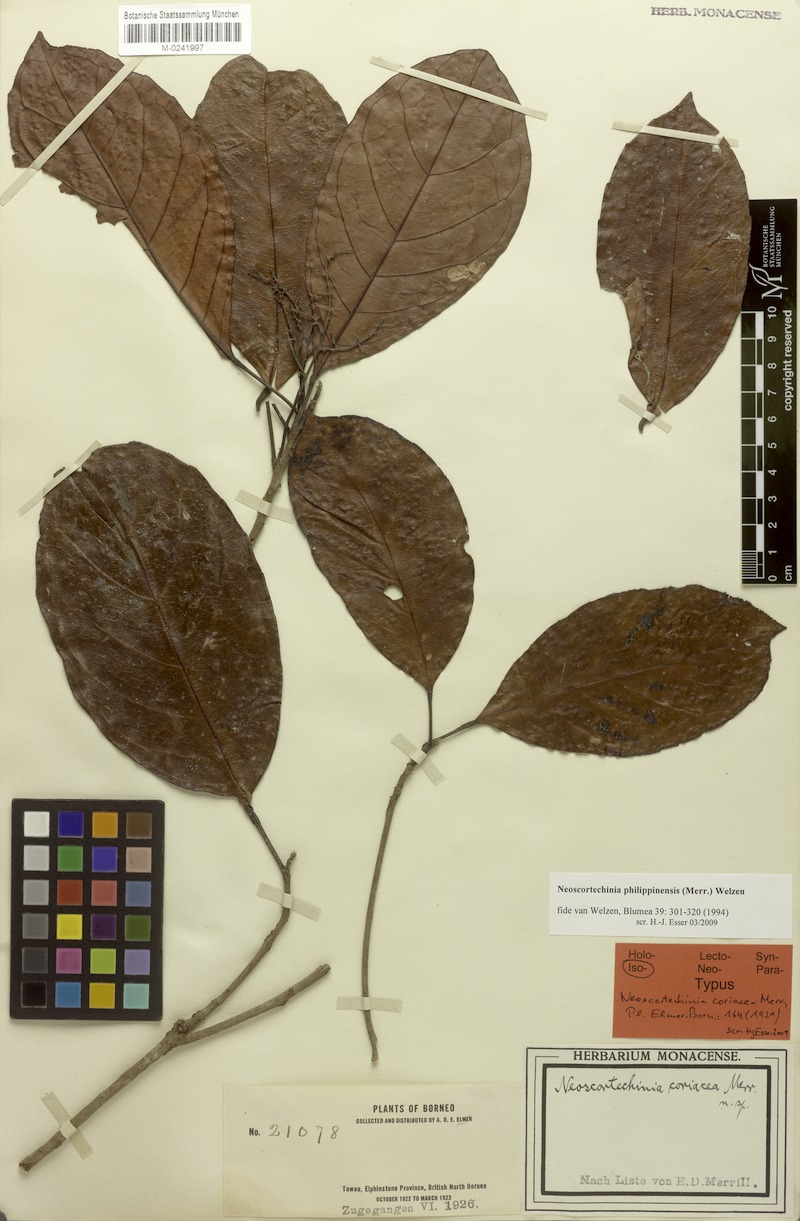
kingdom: Plantae
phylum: Tracheophyta
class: Magnoliopsida
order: Malpighiales
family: Euphorbiaceae
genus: Neoscortechinia
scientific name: Neoscortechinia philippinensis
